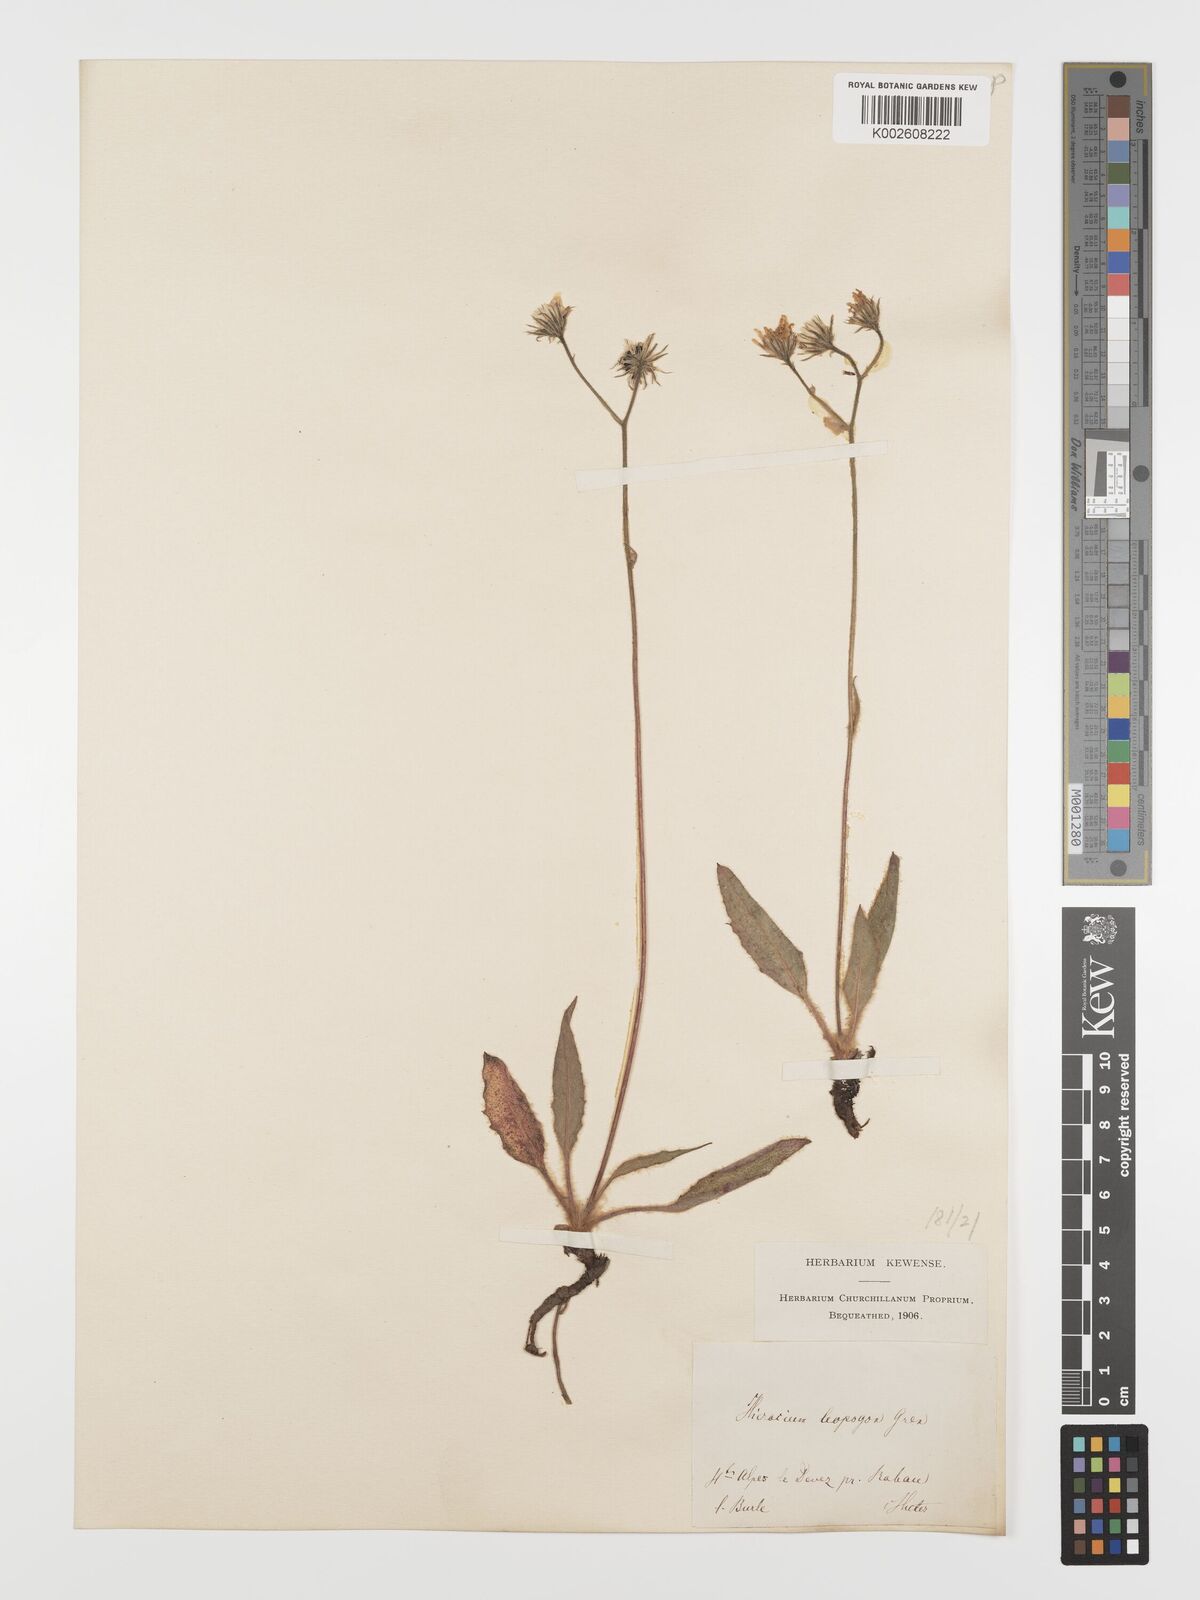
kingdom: Plantae
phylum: Tracheophyta
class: Magnoliopsida
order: Asterales
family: Asteraceae
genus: Hieracium
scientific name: Hieracium leiopogon
